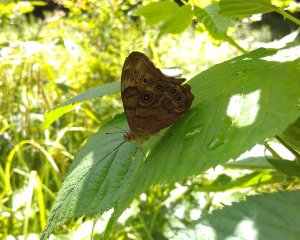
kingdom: Animalia
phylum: Arthropoda
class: Insecta
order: Lepidoptera
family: Nymphalidae
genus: Lethe
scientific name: Lethe anthedon
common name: Northern Pearly-Eye
